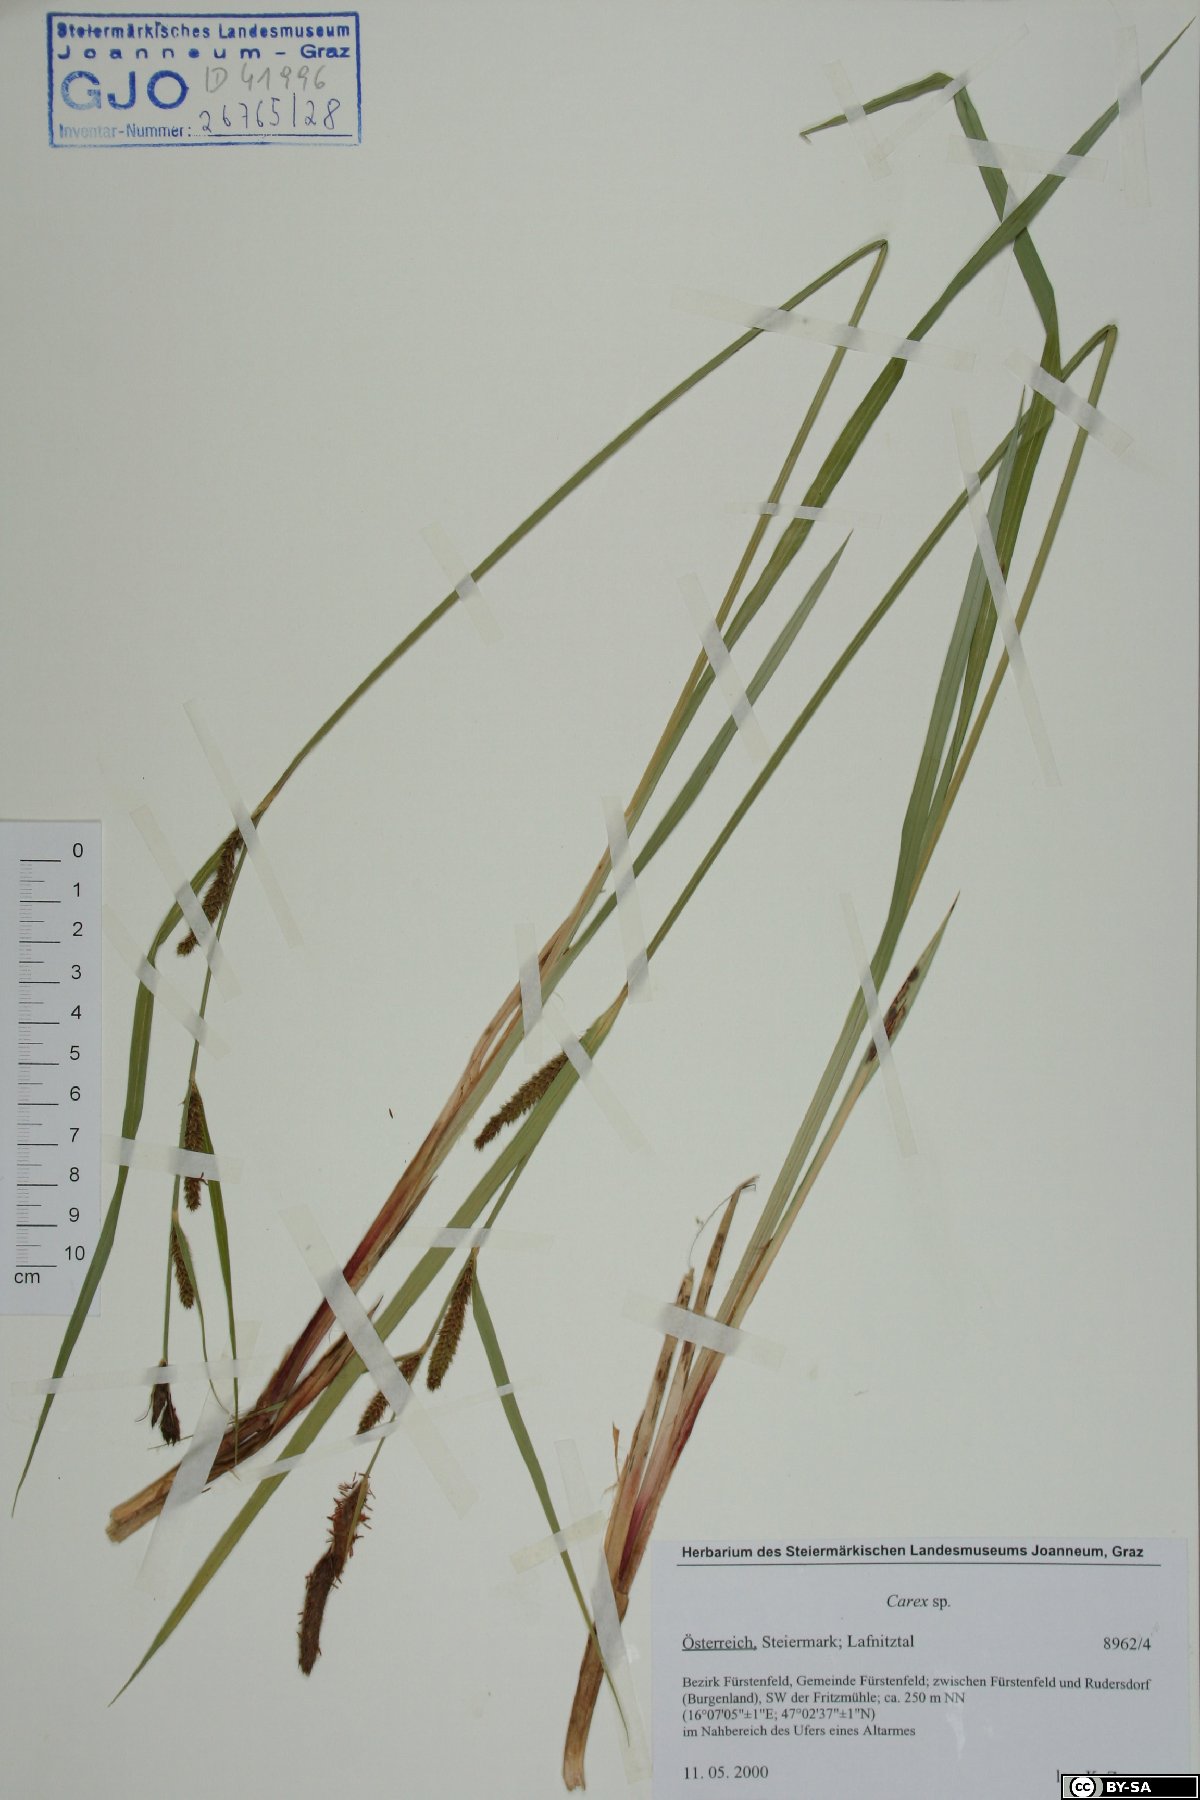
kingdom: Plantae
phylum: Tracheophyta
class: Liliopsida
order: Poales
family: Cyperaceae
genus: Carex
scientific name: Carex
